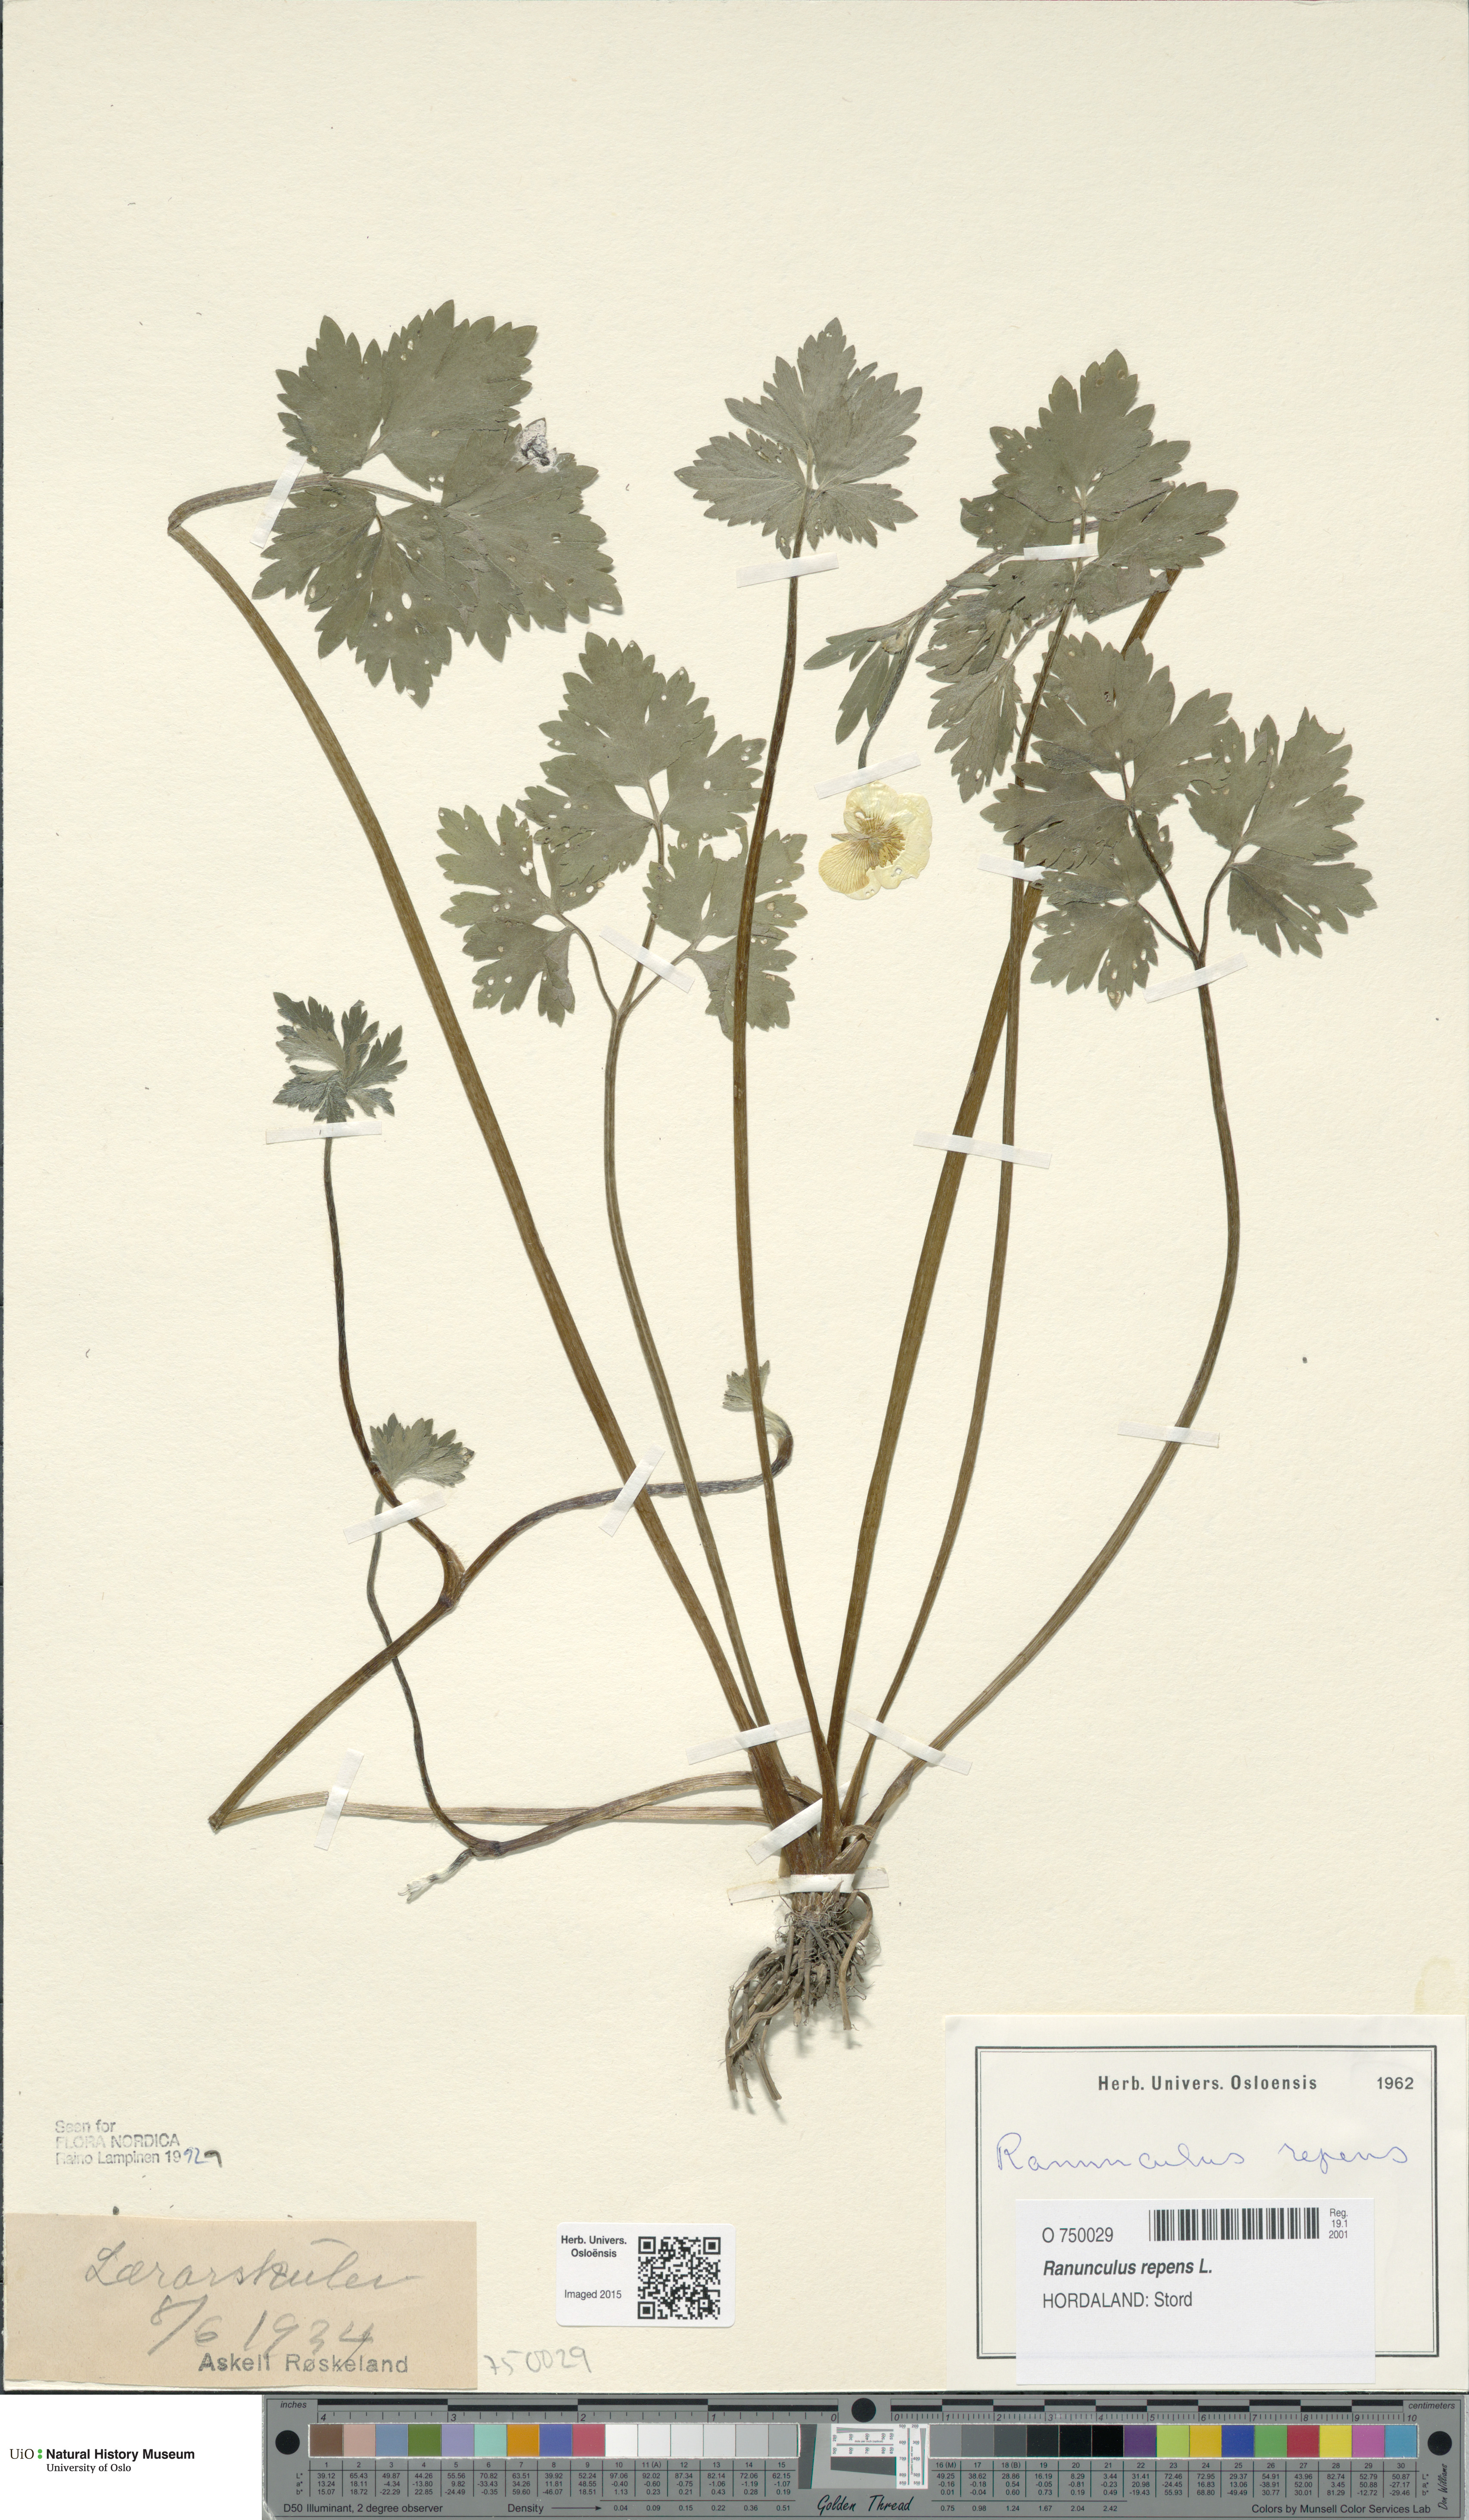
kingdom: Plantae
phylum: Tracheophyta
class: Magnoliopsida
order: Ranunculales
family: Ranunculaceae
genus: Ranunculus
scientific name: Ranunculus repens
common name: Creeping buttercup
